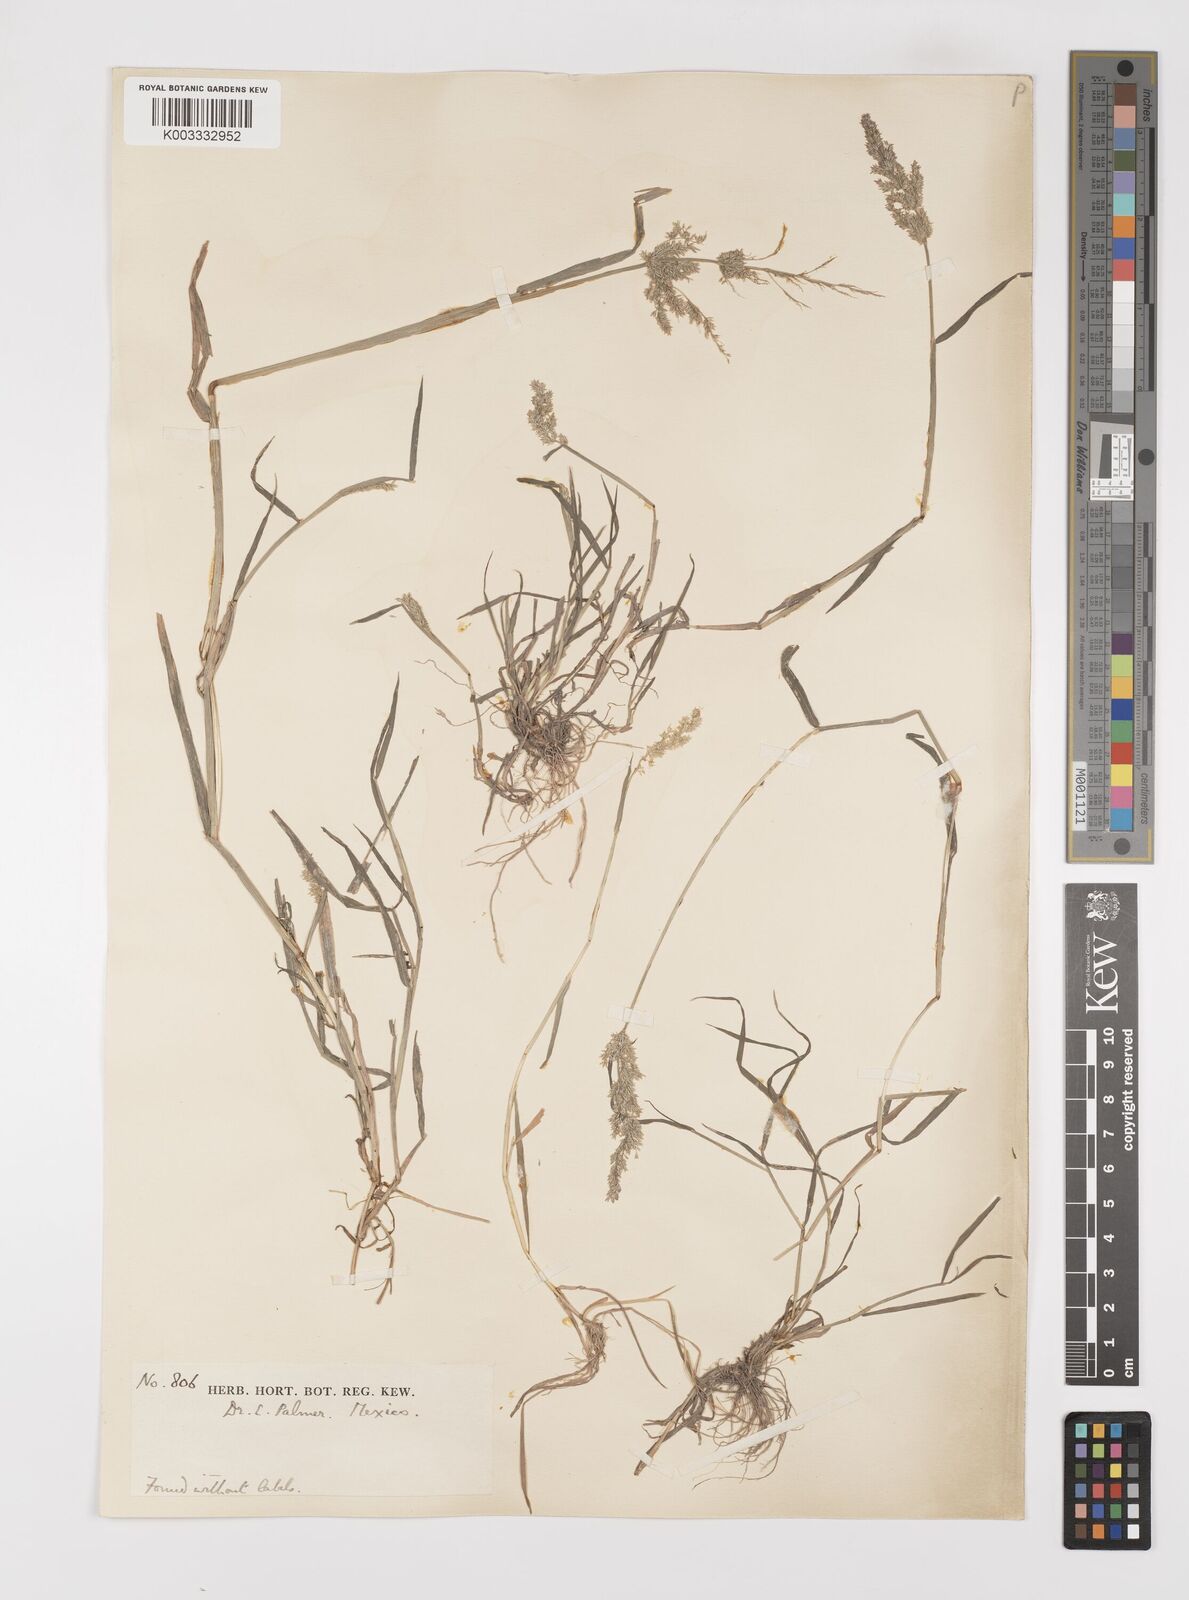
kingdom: Plantae
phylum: Tracheophyta
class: Liliopsida
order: Poales
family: Poaceae
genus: Polypogon
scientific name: Polypogon viridis
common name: Water bent
